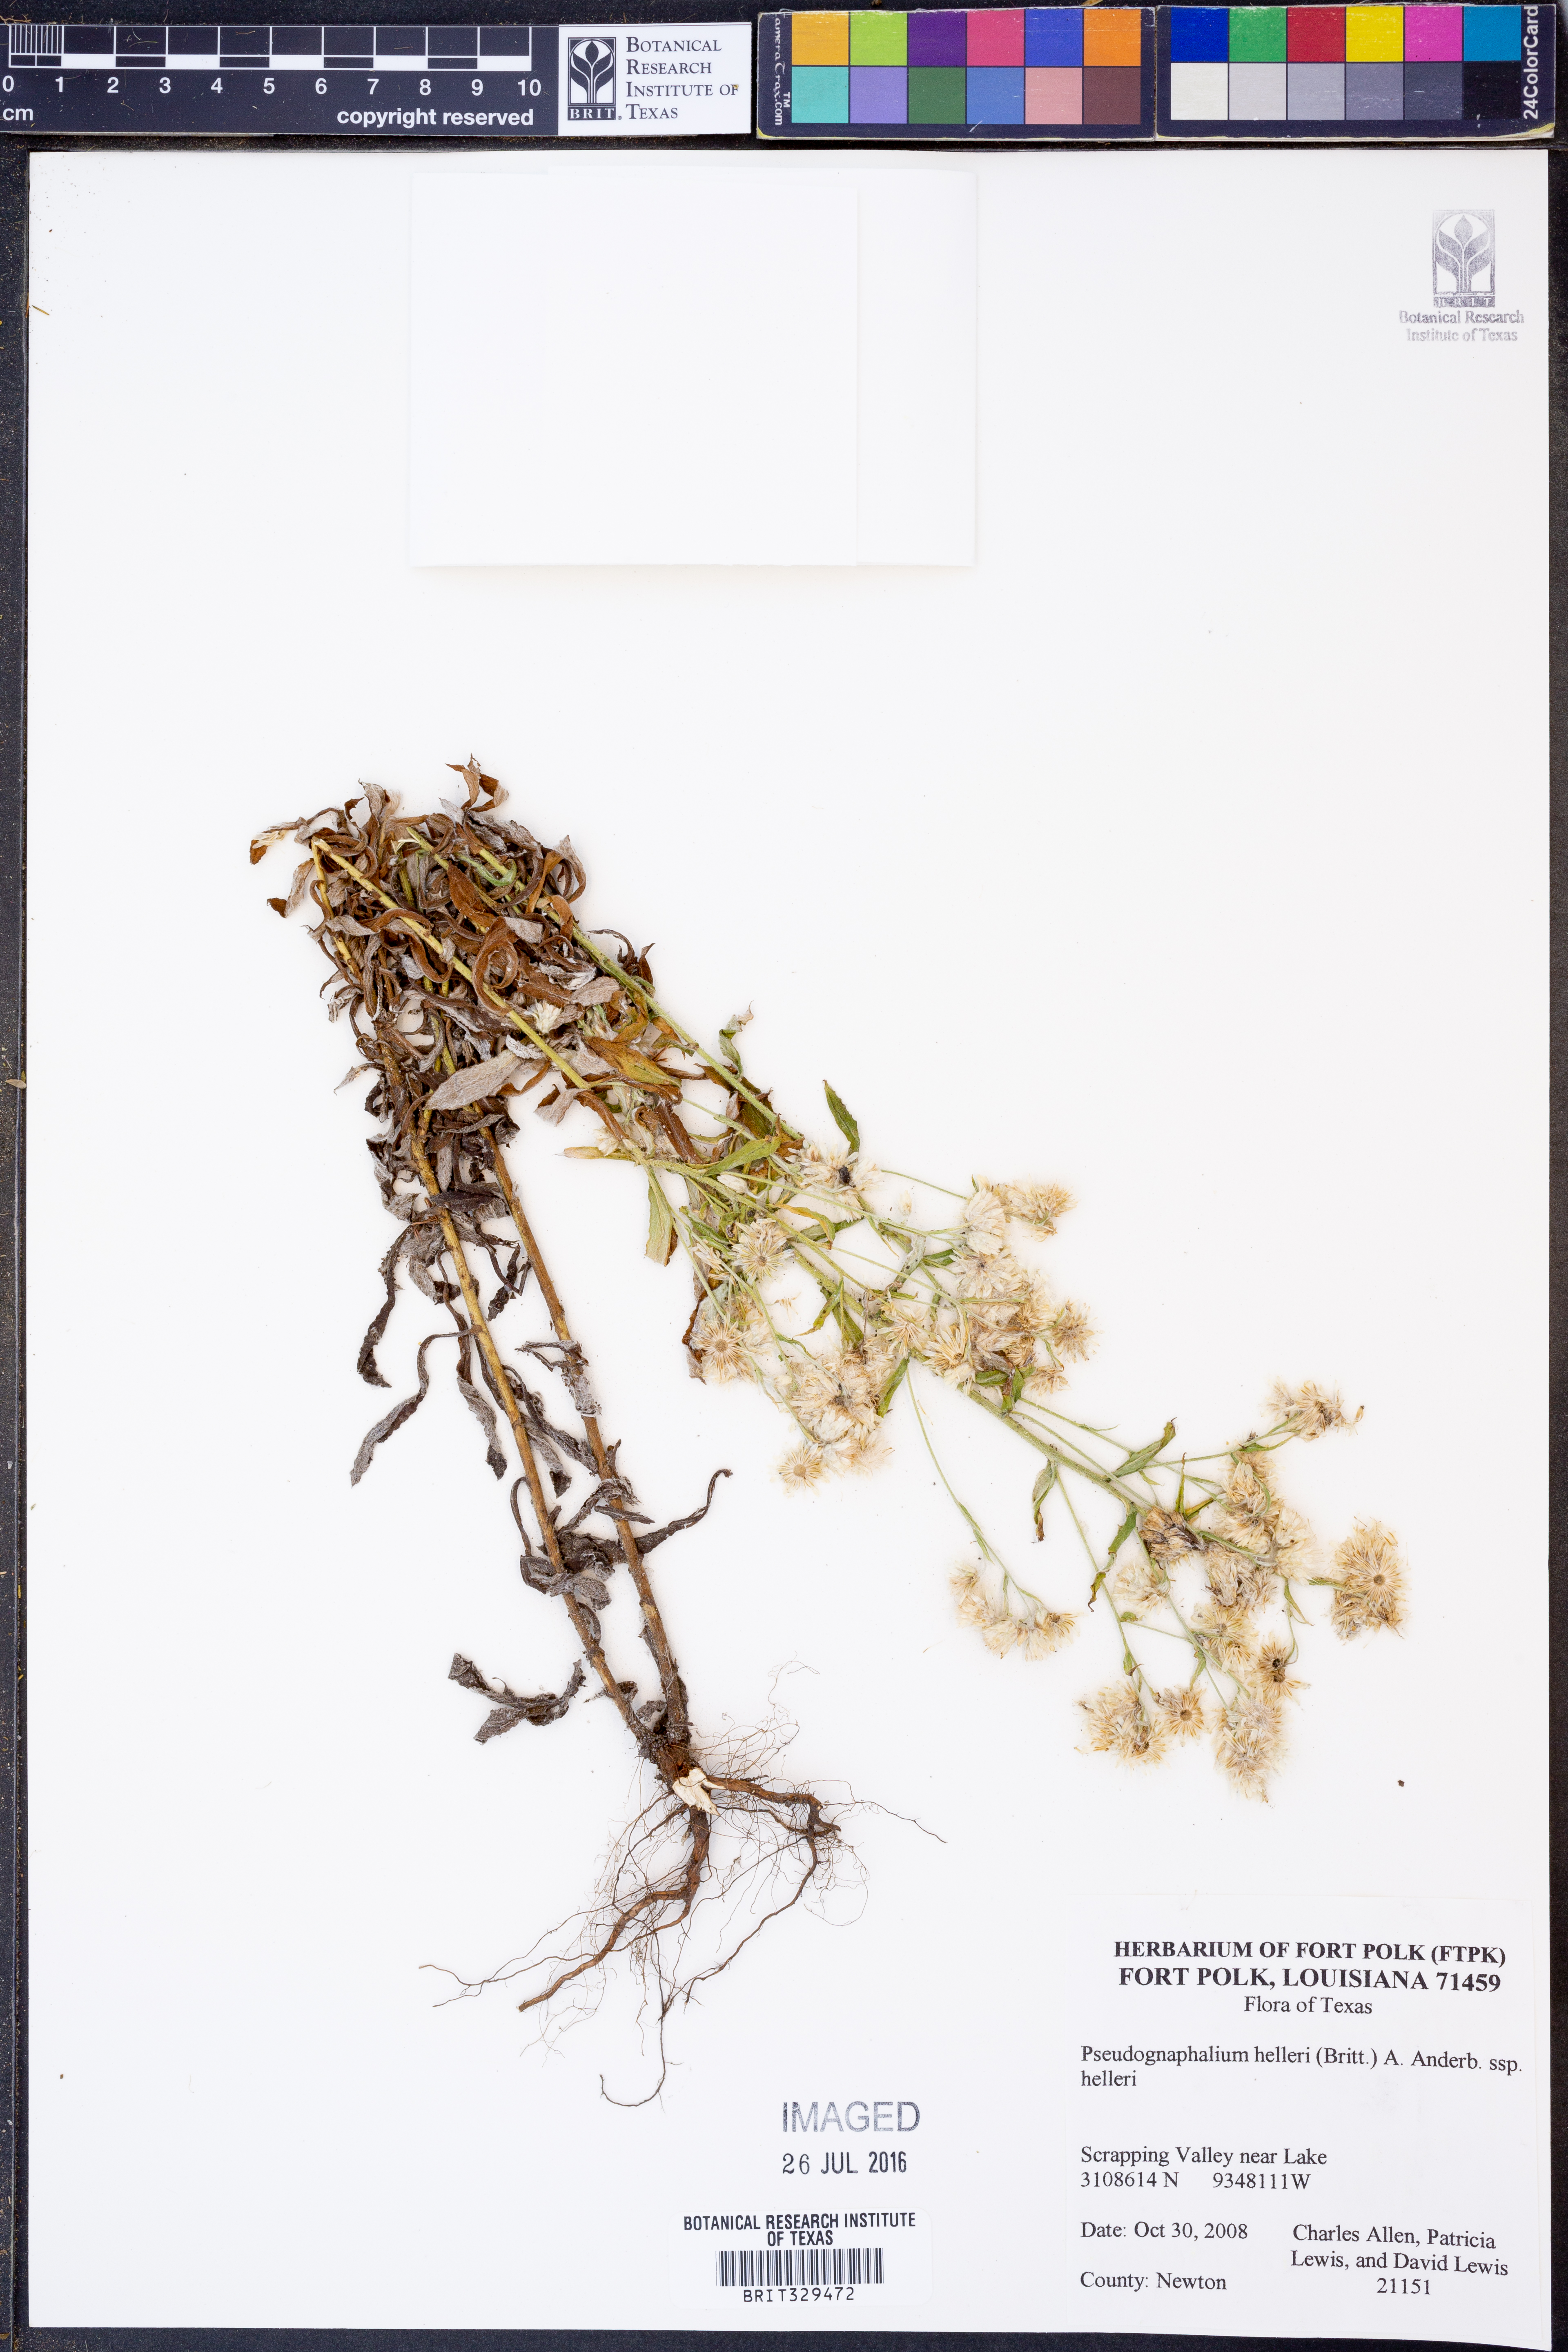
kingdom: Plantae
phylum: Tracheophyta
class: Magnoliopsida
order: Asterales
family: Asteraceae
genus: Pseudognaphalium
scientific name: Pseudognaphalium helleri
